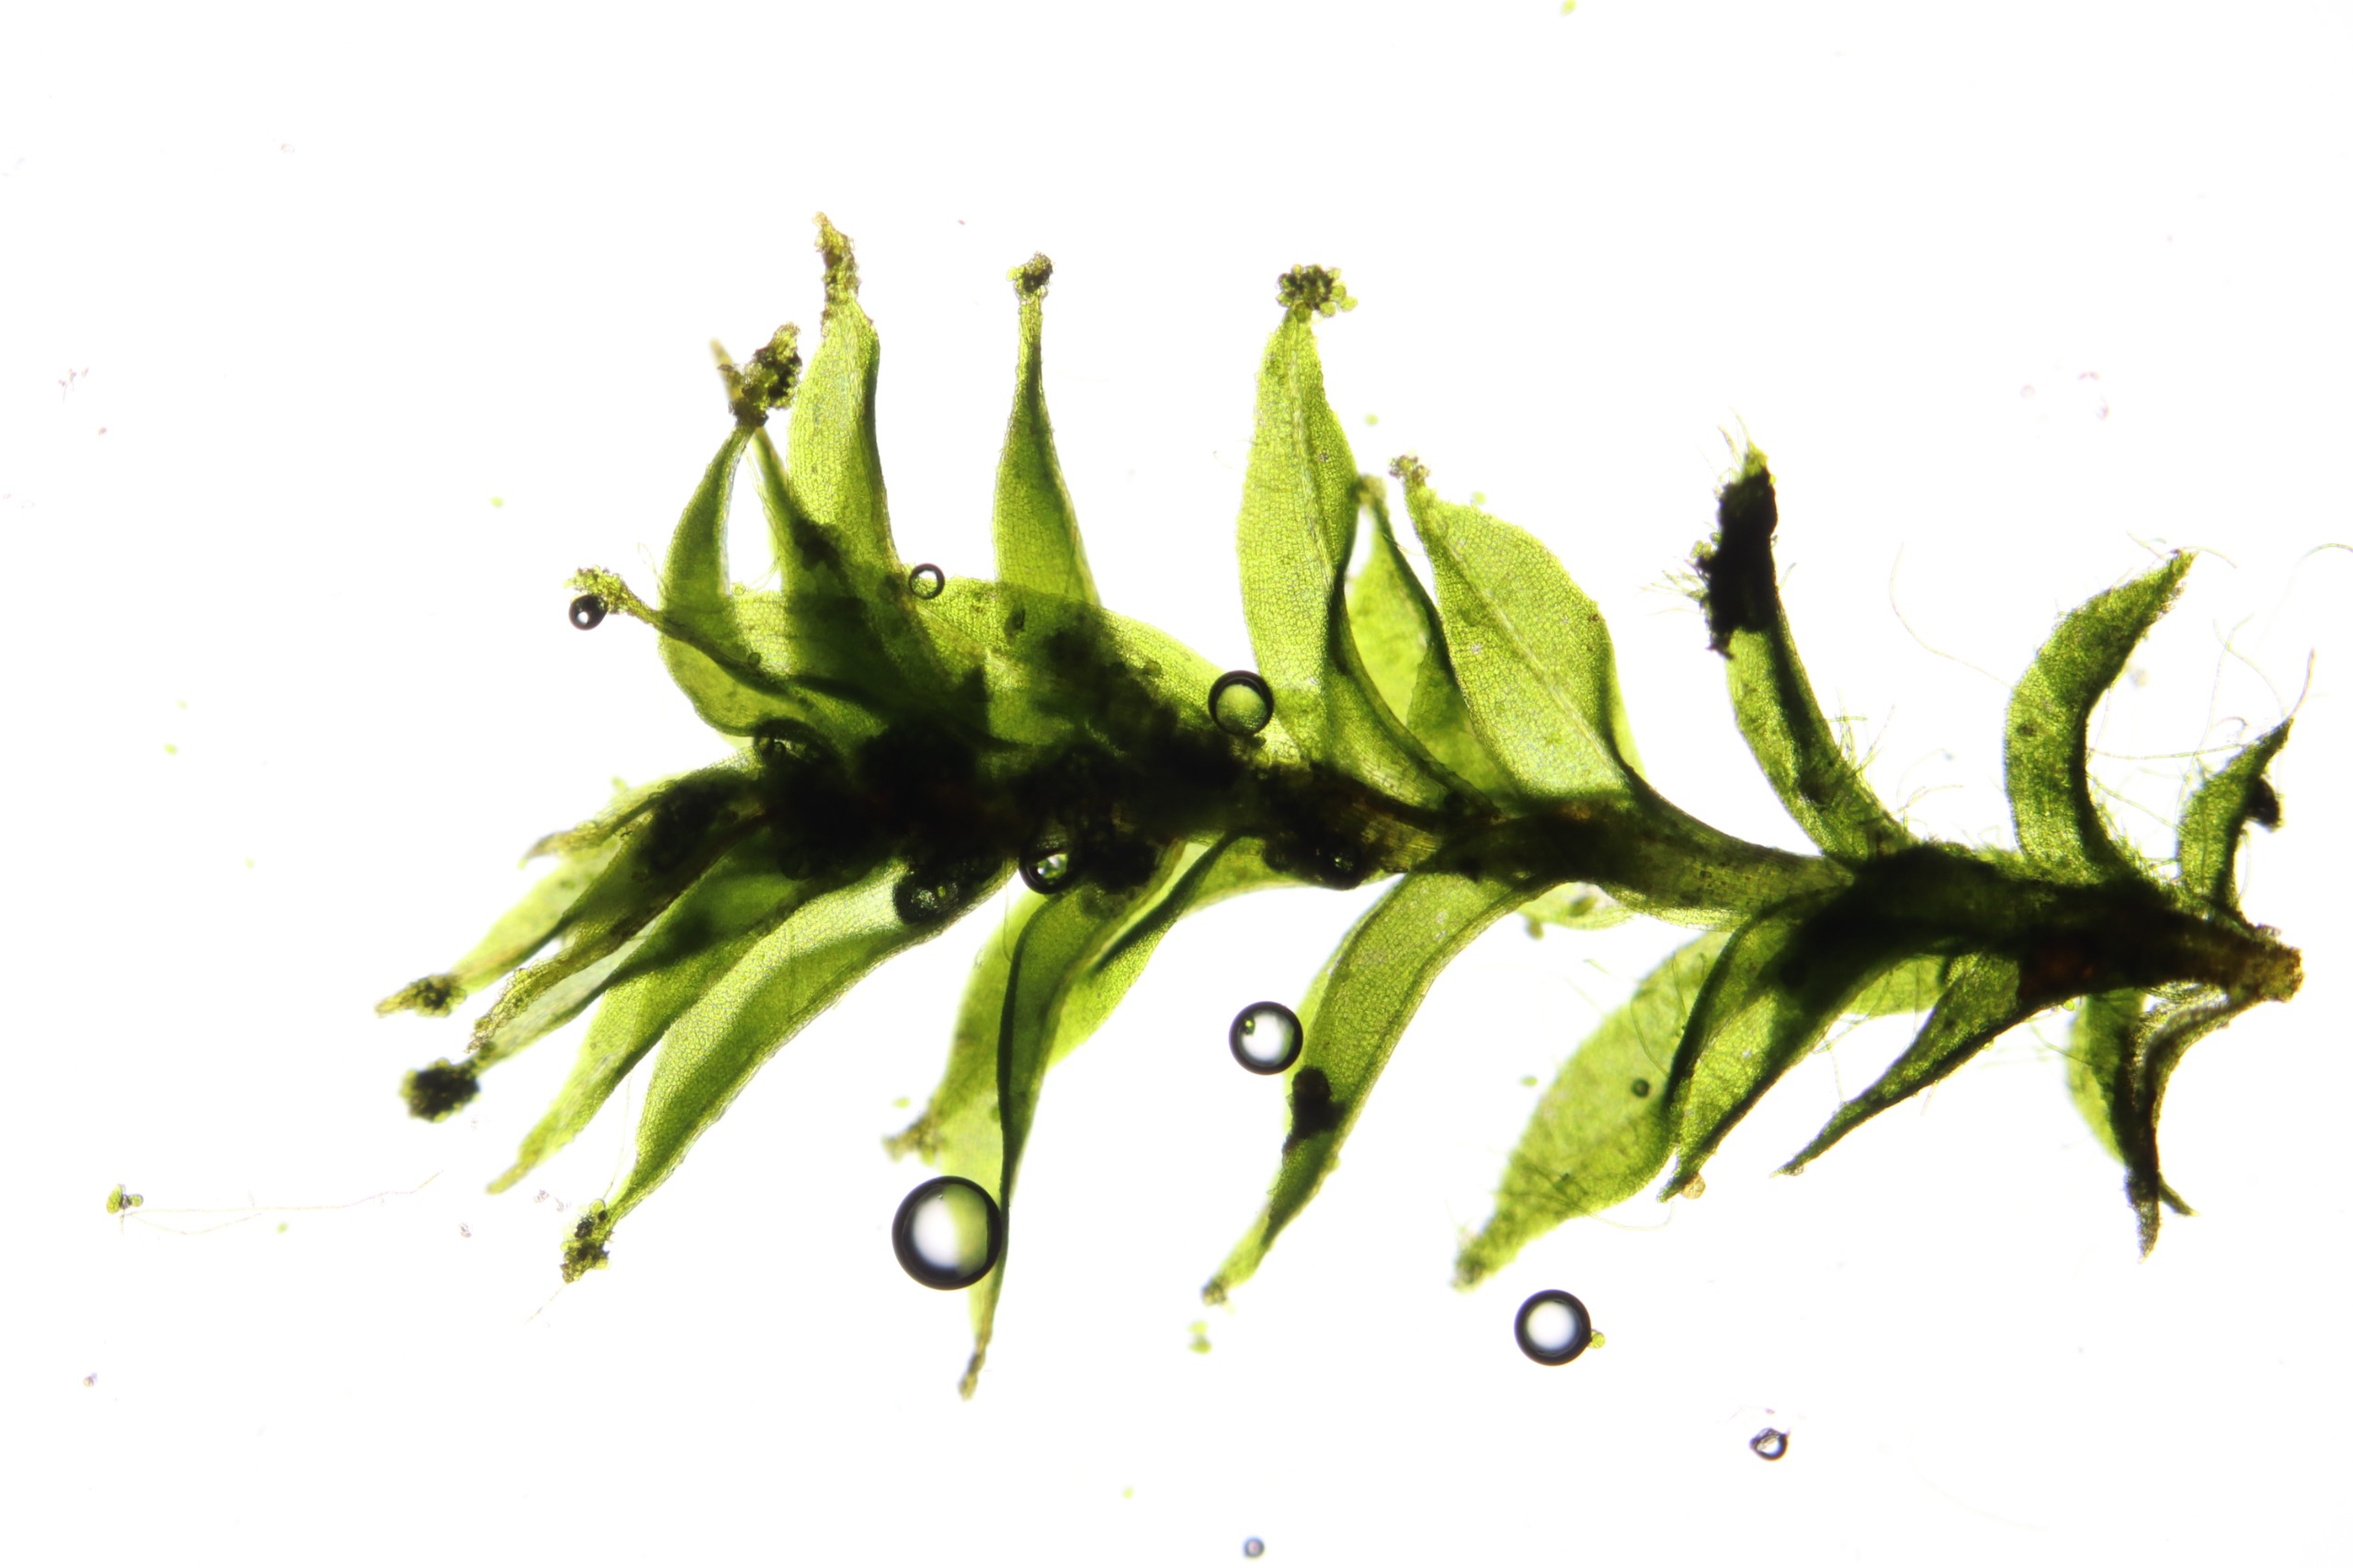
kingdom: Plantae
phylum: Bryophyta
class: Bryopsida
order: Pottiales
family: Pottiaceae
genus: Leptodontium
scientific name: Leptodontium gemmascens
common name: Brod-smaltand
